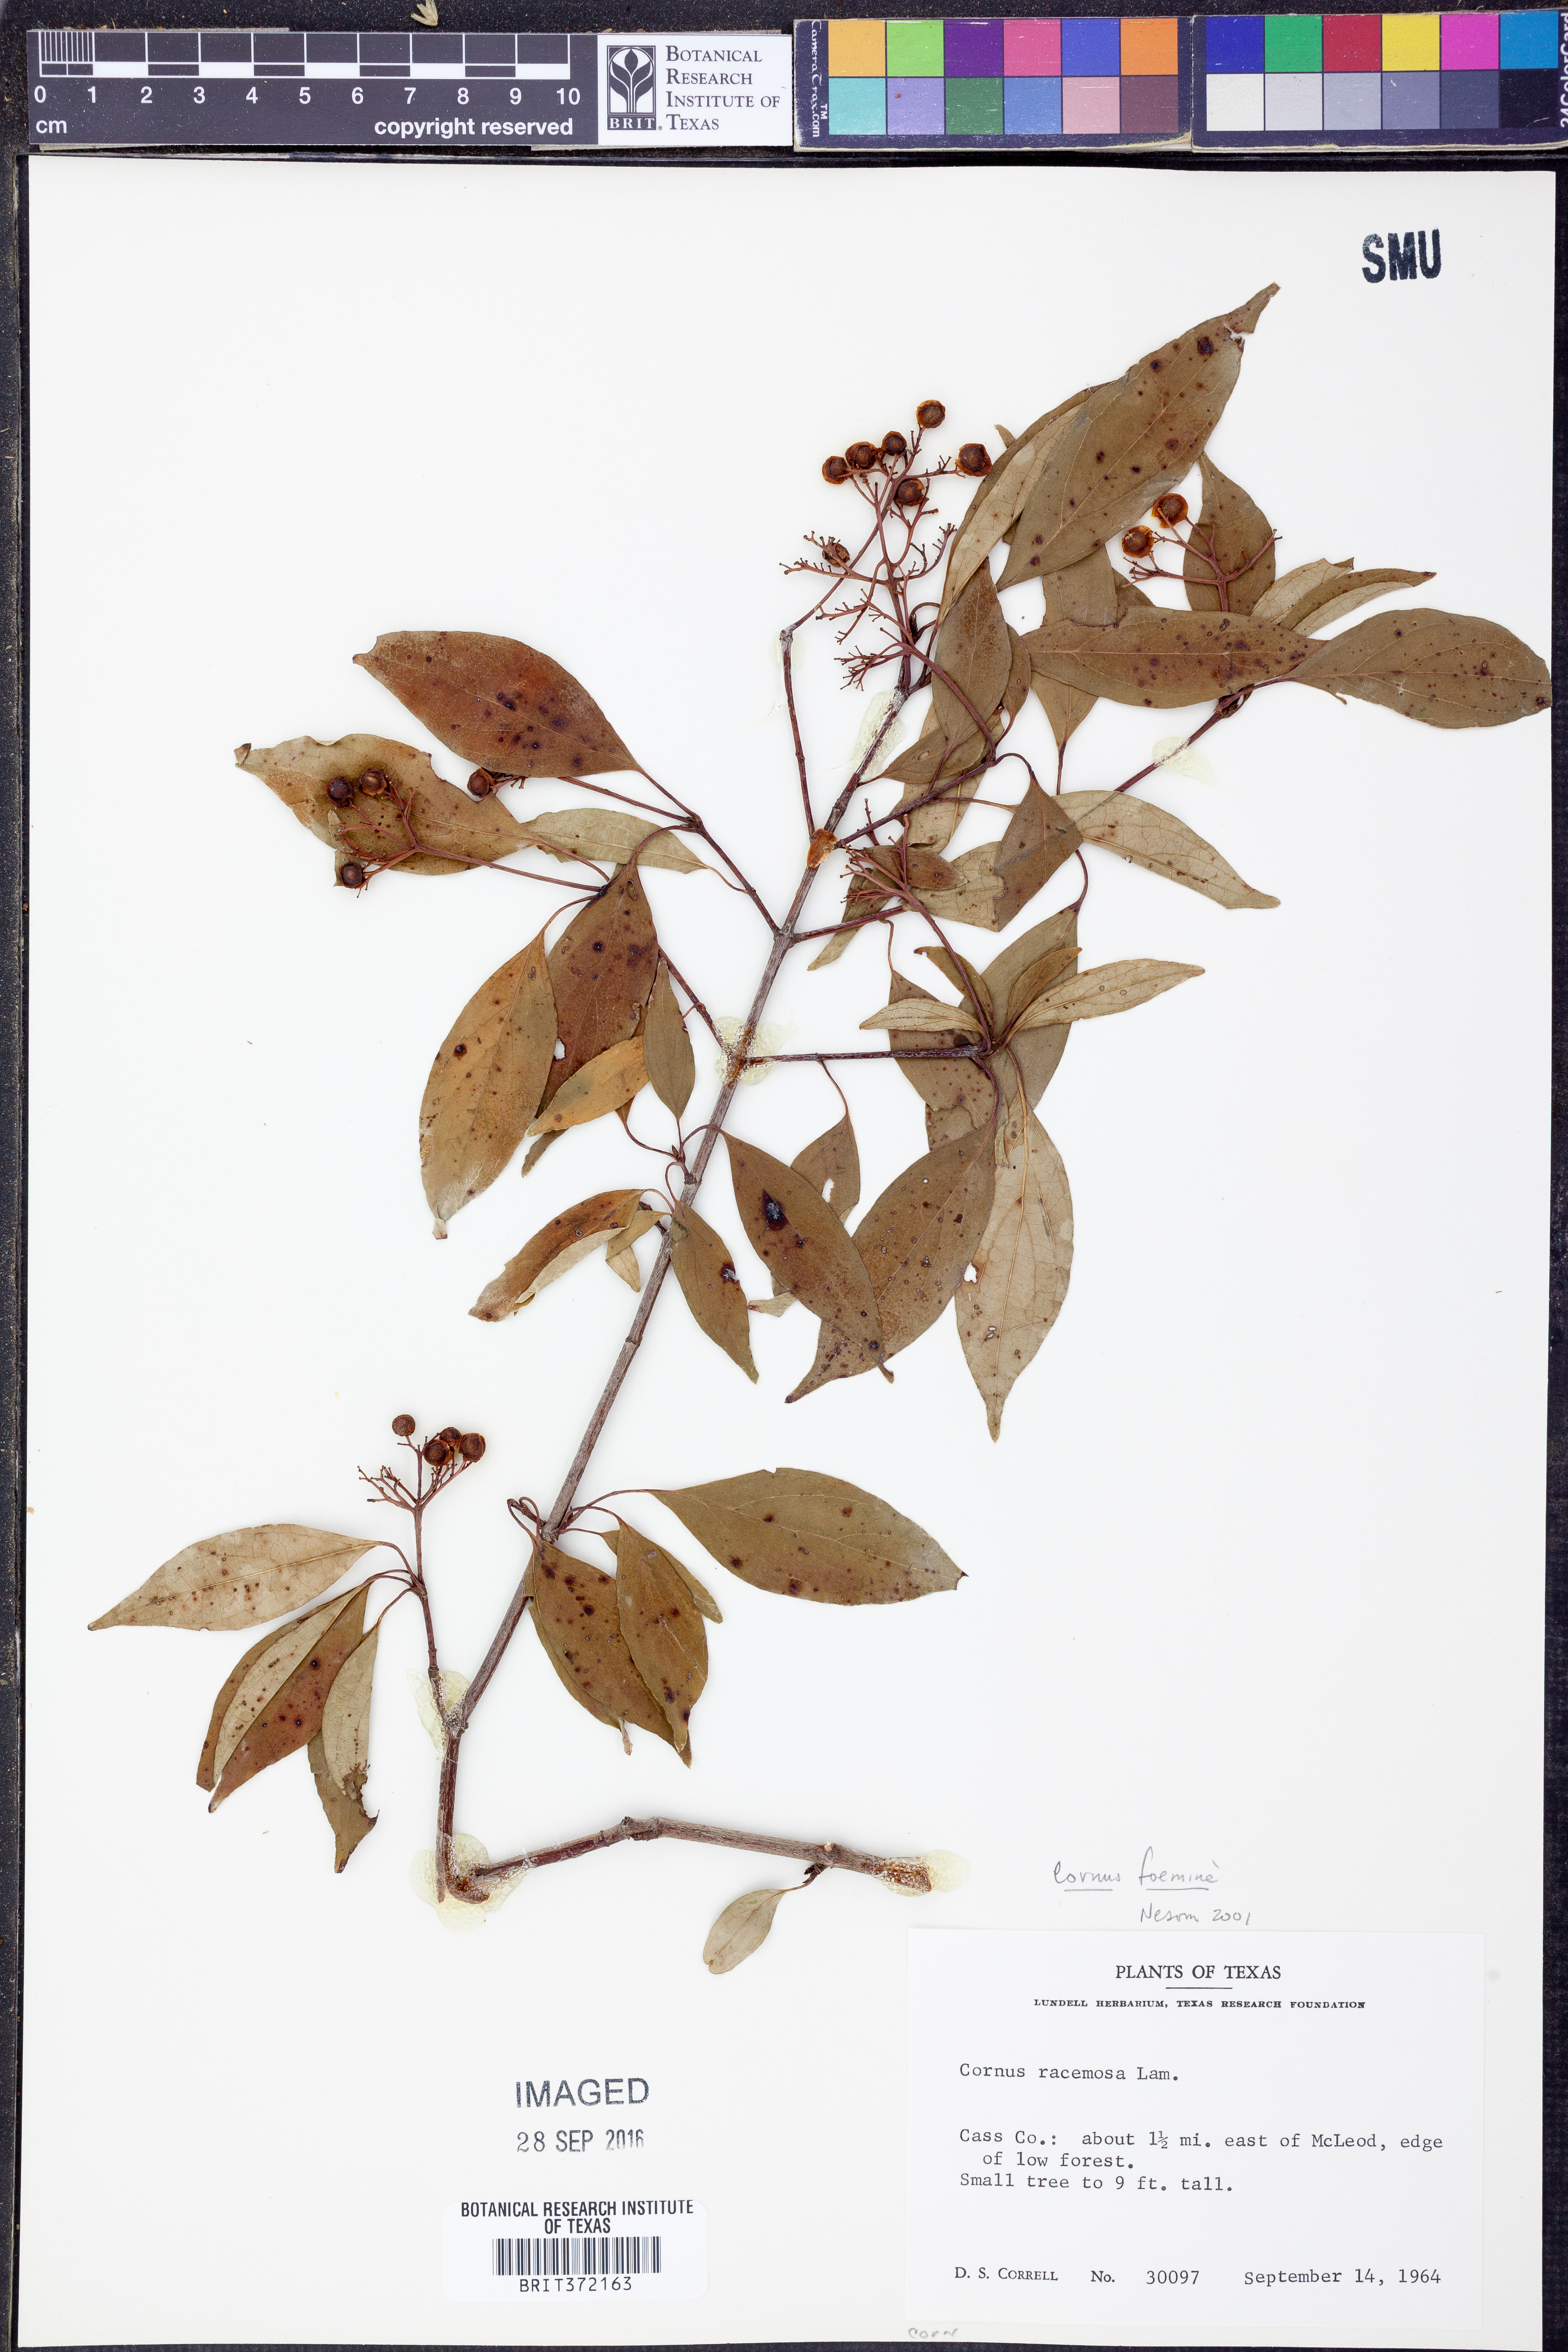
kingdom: Plantae
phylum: Tracheophyta
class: Magnoliopsida
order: Cornales
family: Cornaceae
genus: Cornus
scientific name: Cornus foemina
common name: Swamp dogwood
